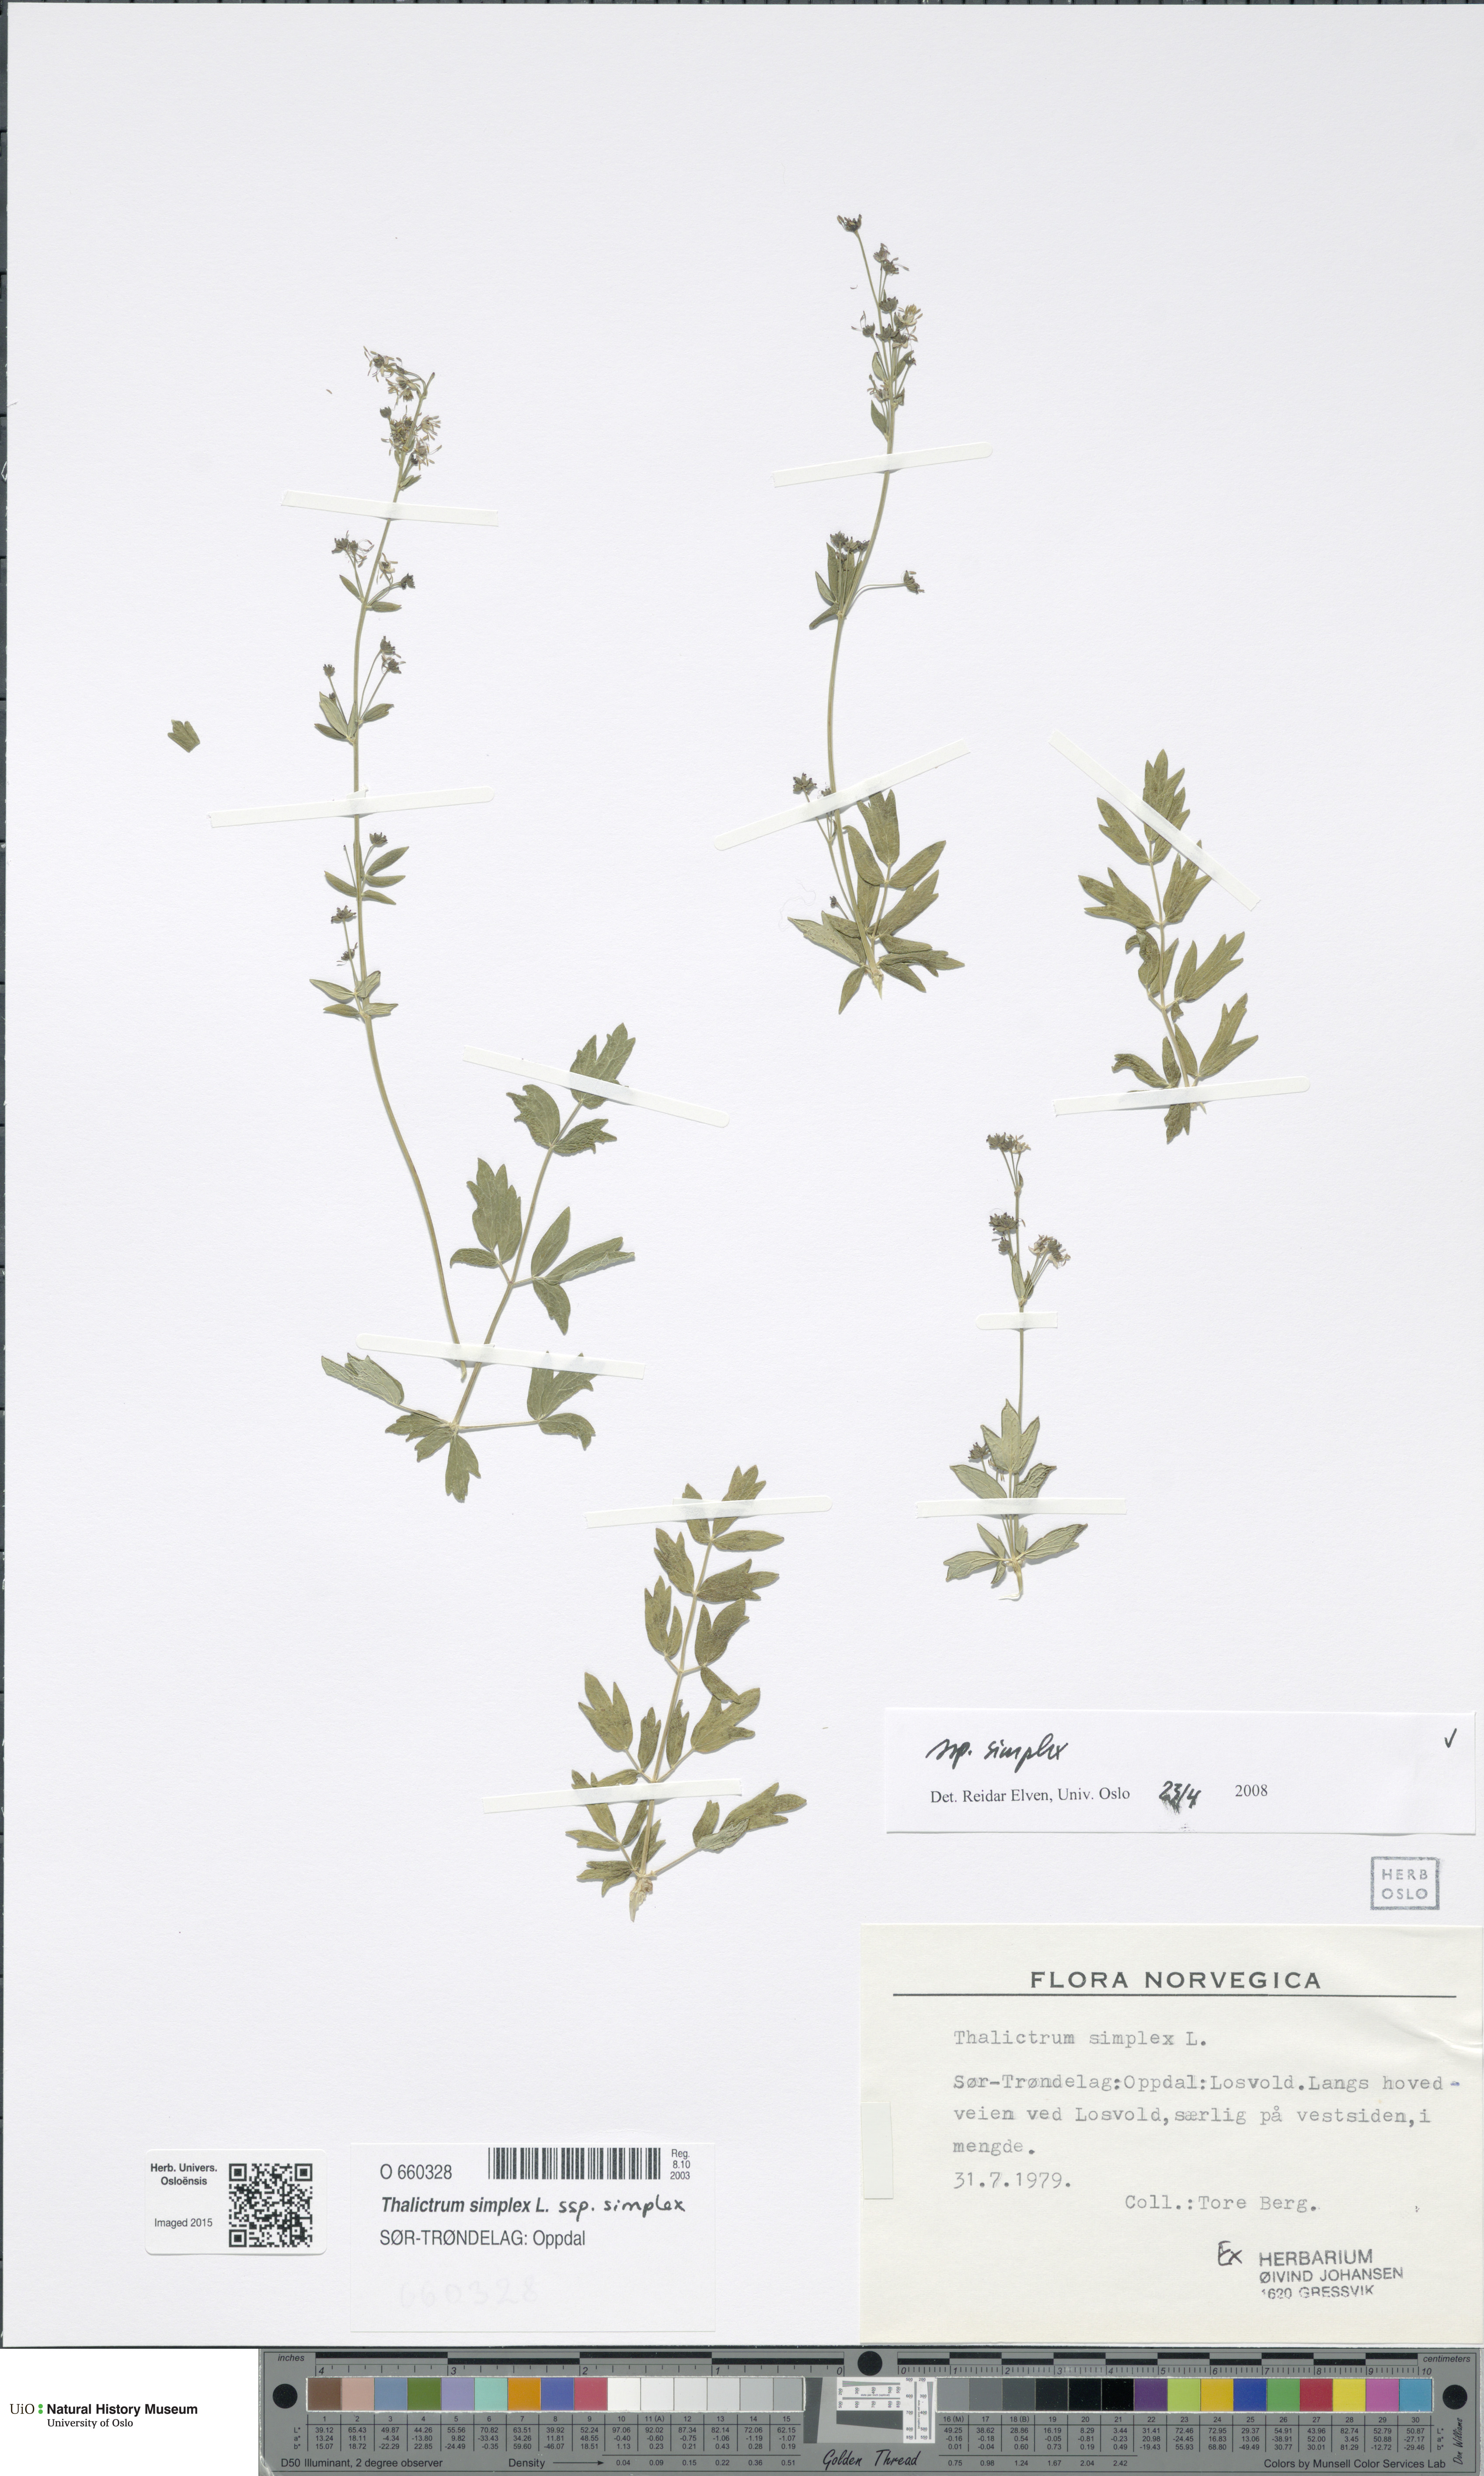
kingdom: Plantae
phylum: Tracheophyta
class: Magnoliopsida
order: Ranunculales
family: Ranunculaceae
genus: Thalictrum
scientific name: Thalictrum simplex
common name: Small meadow-rue
